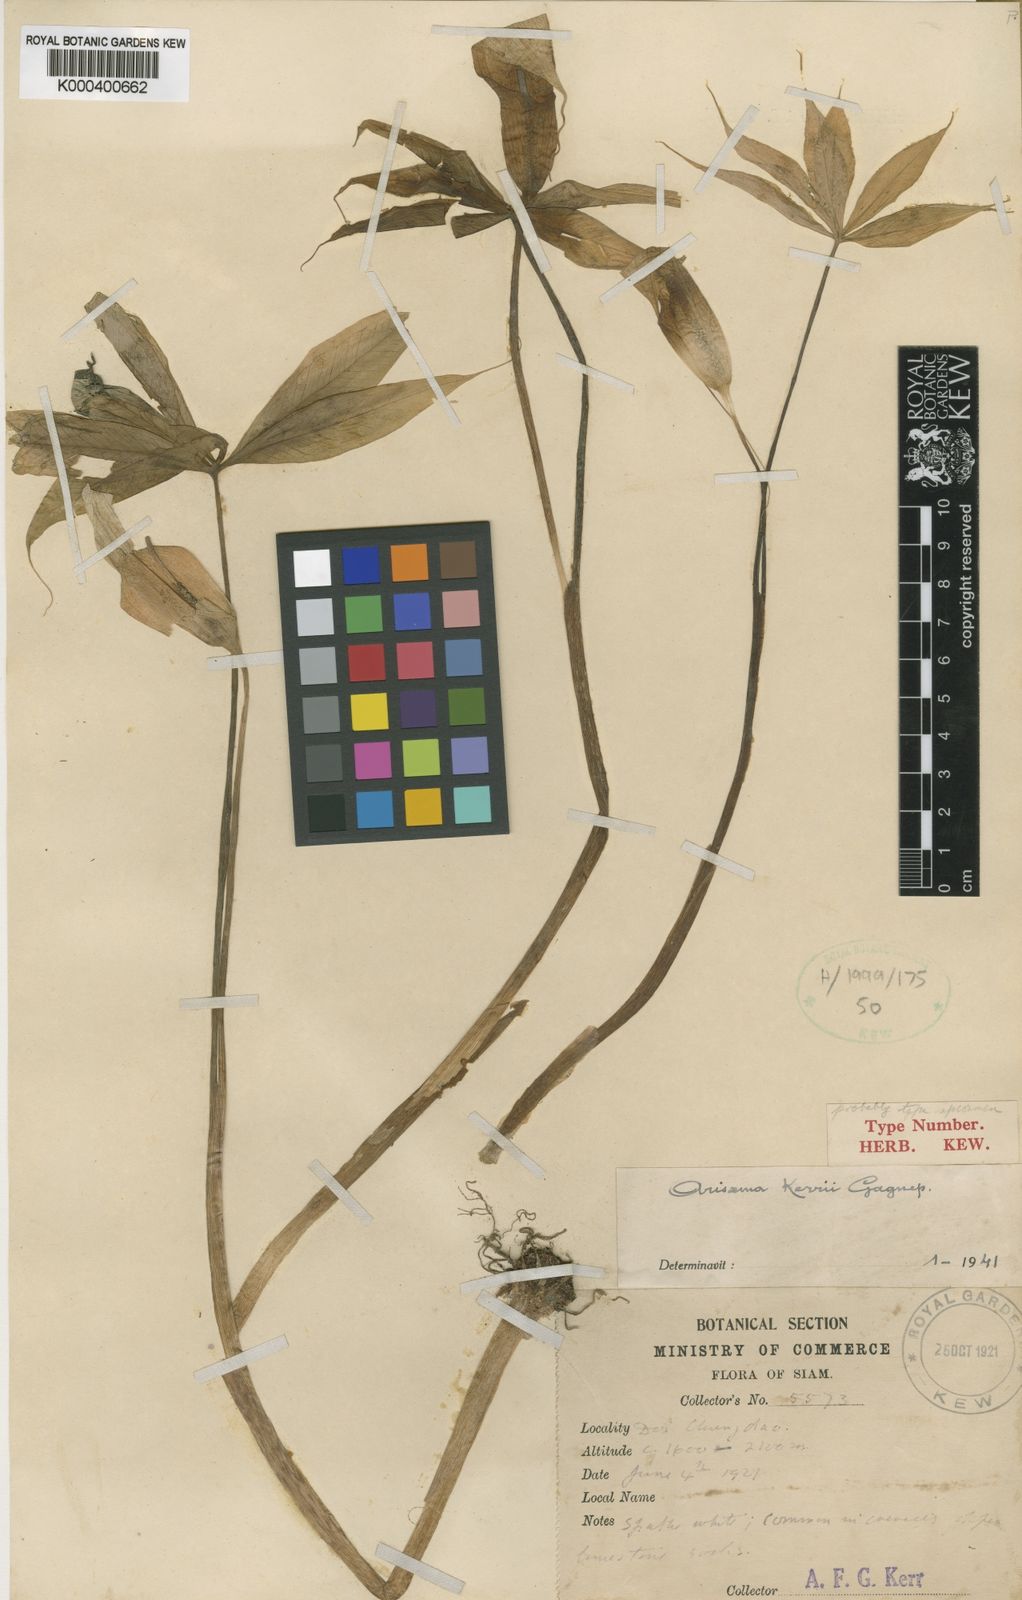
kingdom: Plantae
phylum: Tracheophyta
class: Liliopsida
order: Alismatales
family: Araceae
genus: Arisaema
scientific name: Arisaema consanguineum
